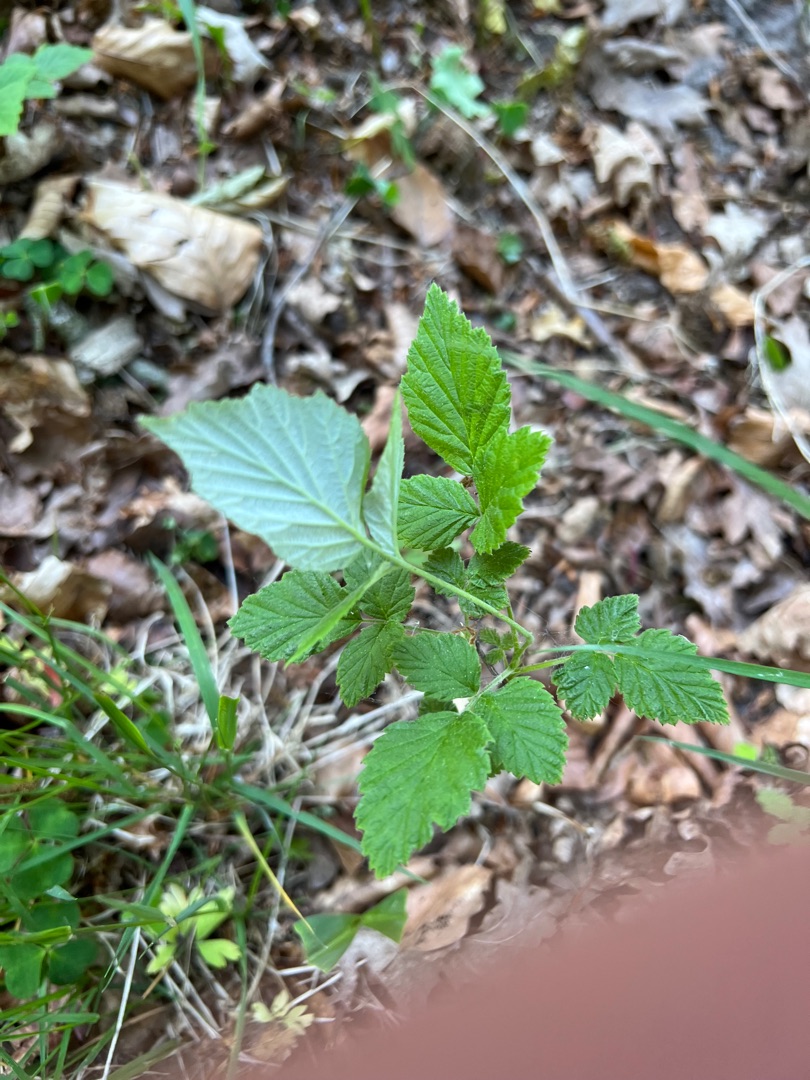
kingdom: Plantae
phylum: Tracheophyta
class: Magnoliopsida
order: Rosales
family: Rosaceae
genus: Rubus
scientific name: Rubus idaeus
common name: Hindbær
